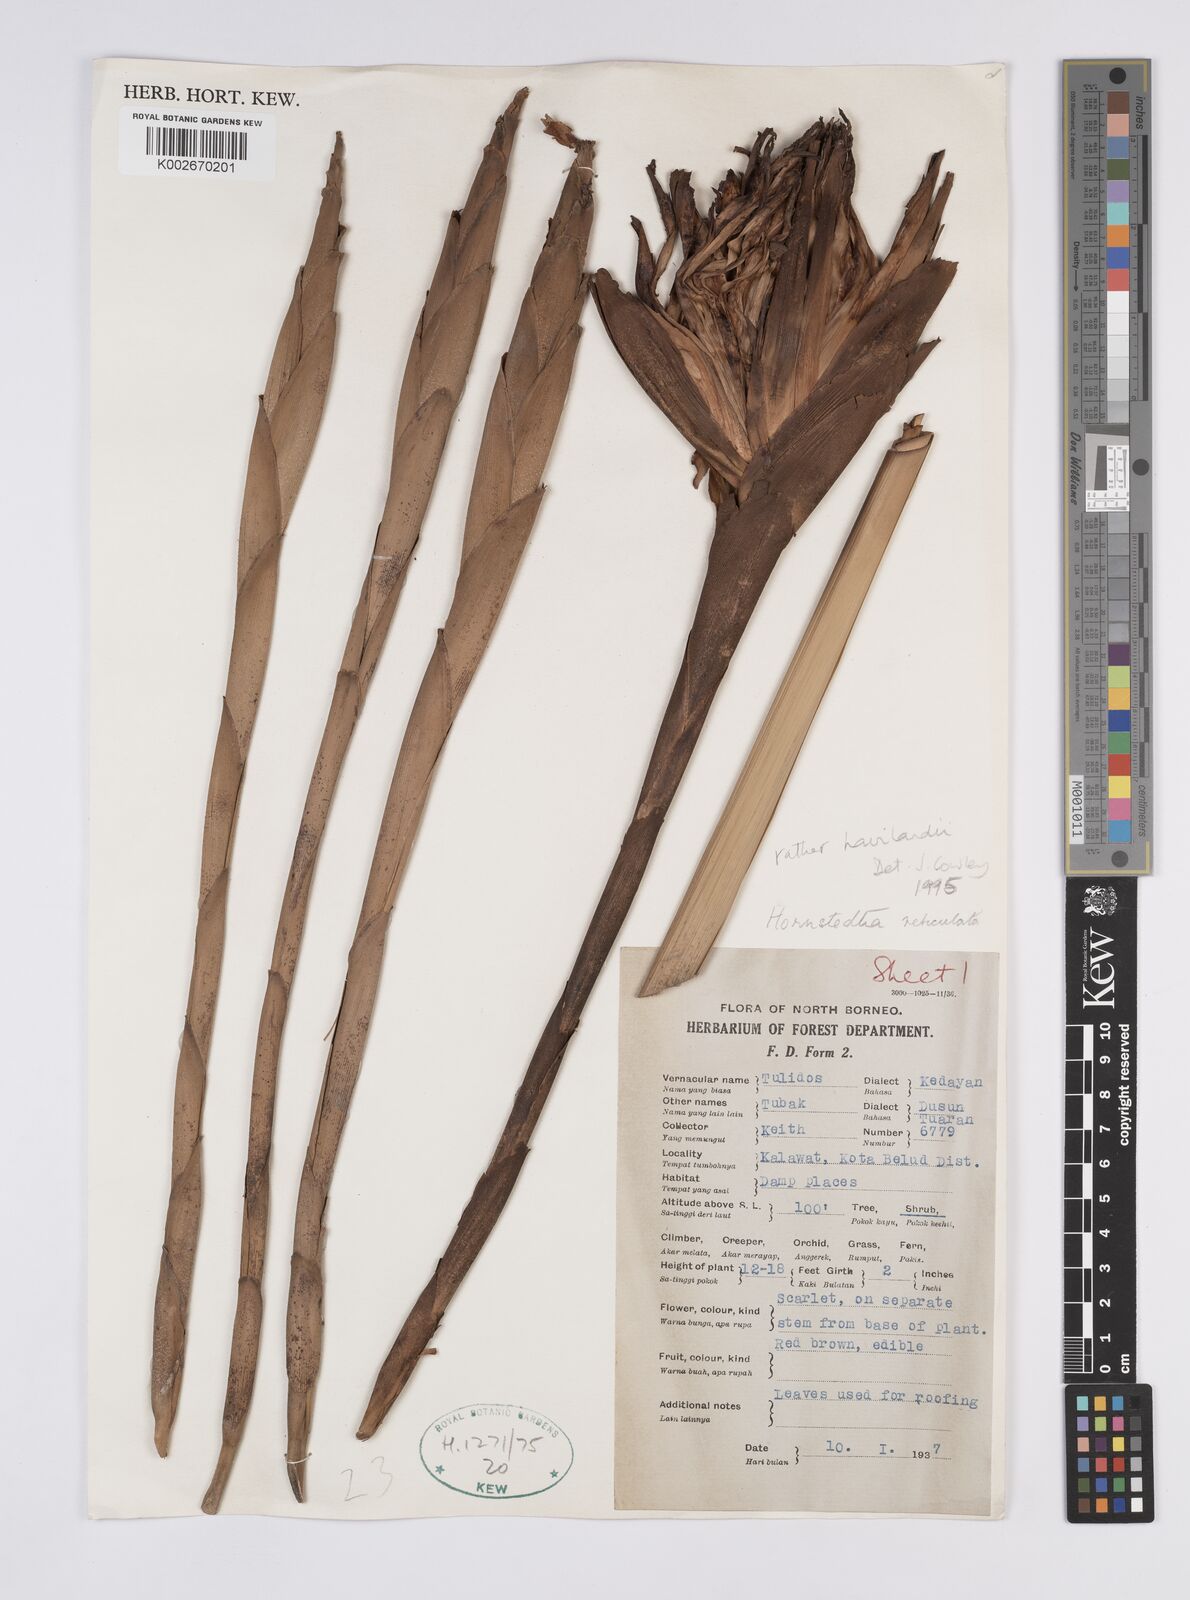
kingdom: Plantae
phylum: Tracheophyta
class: Liliopsida
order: Zingiberales
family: Zingiberaceae
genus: Hornstedtia
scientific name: Hornstedtia havilandii
